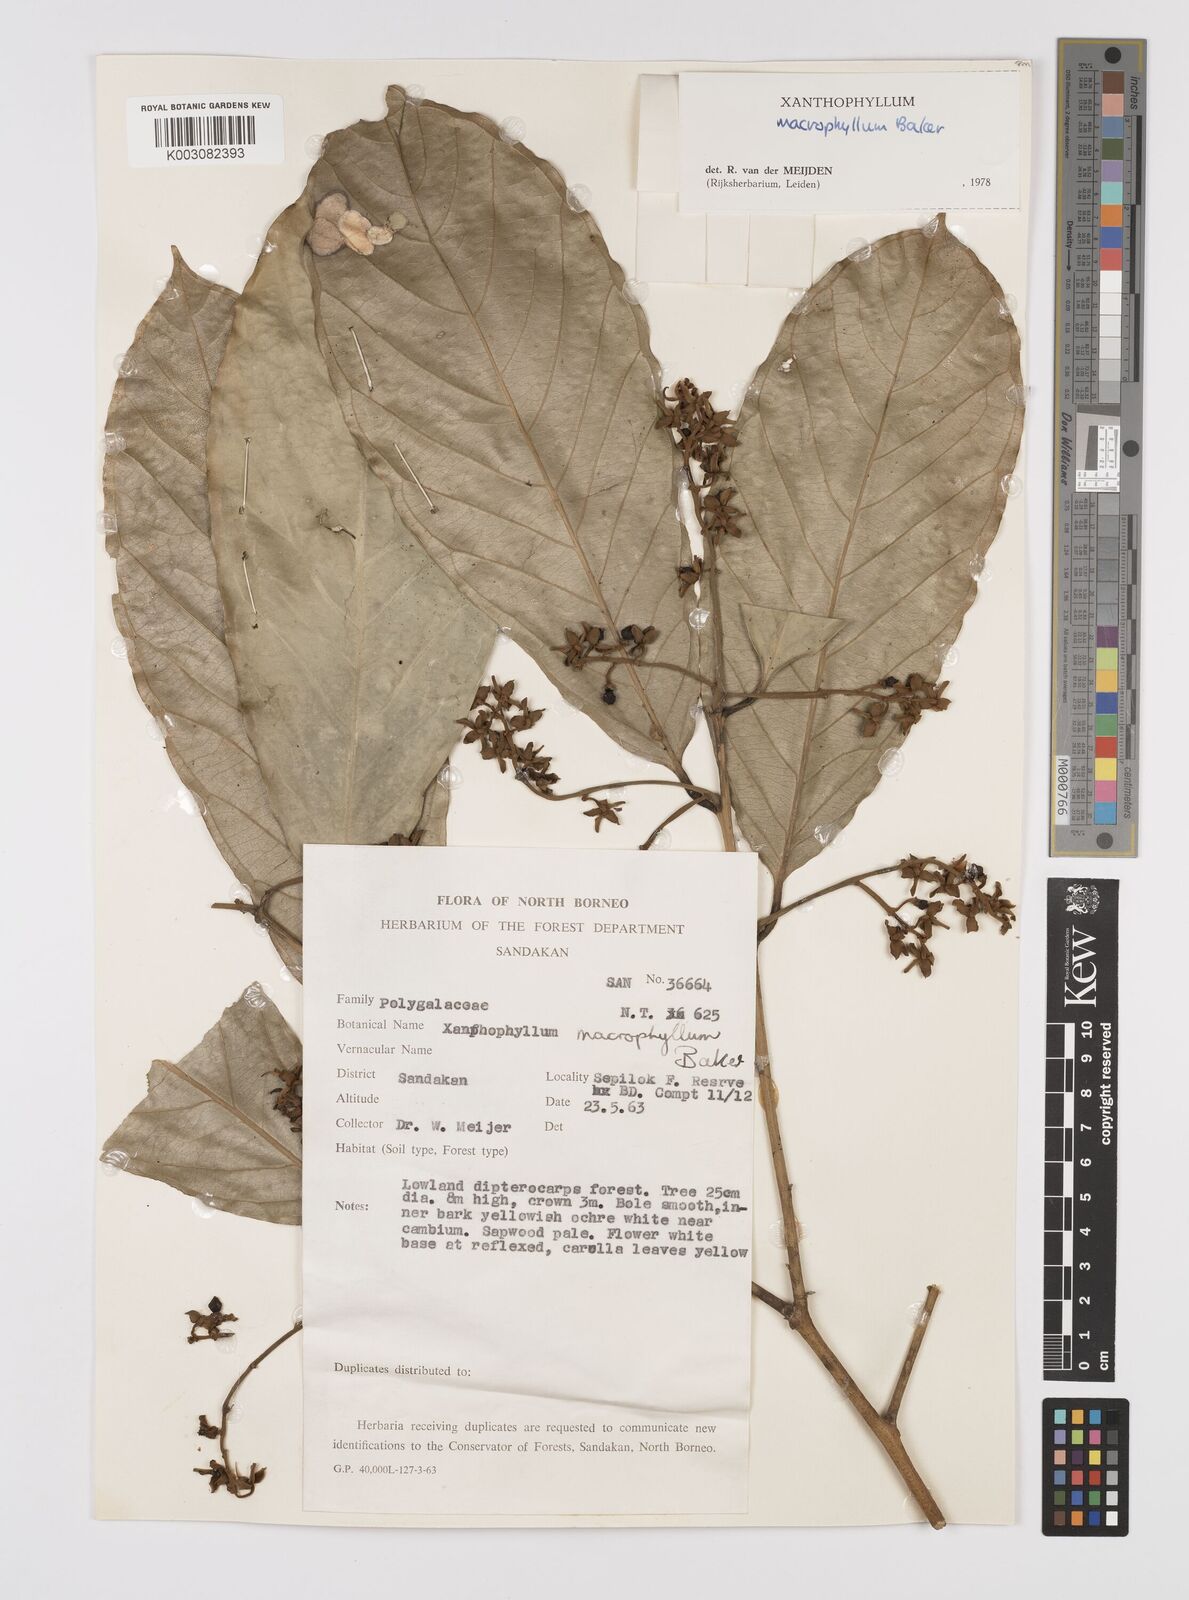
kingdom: Plantae
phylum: Tracheophyta
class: Magnoliopsida
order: Fabales
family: Polygalaceae
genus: Xanthophyllum
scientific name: Xanthophyllum macrophyllum
